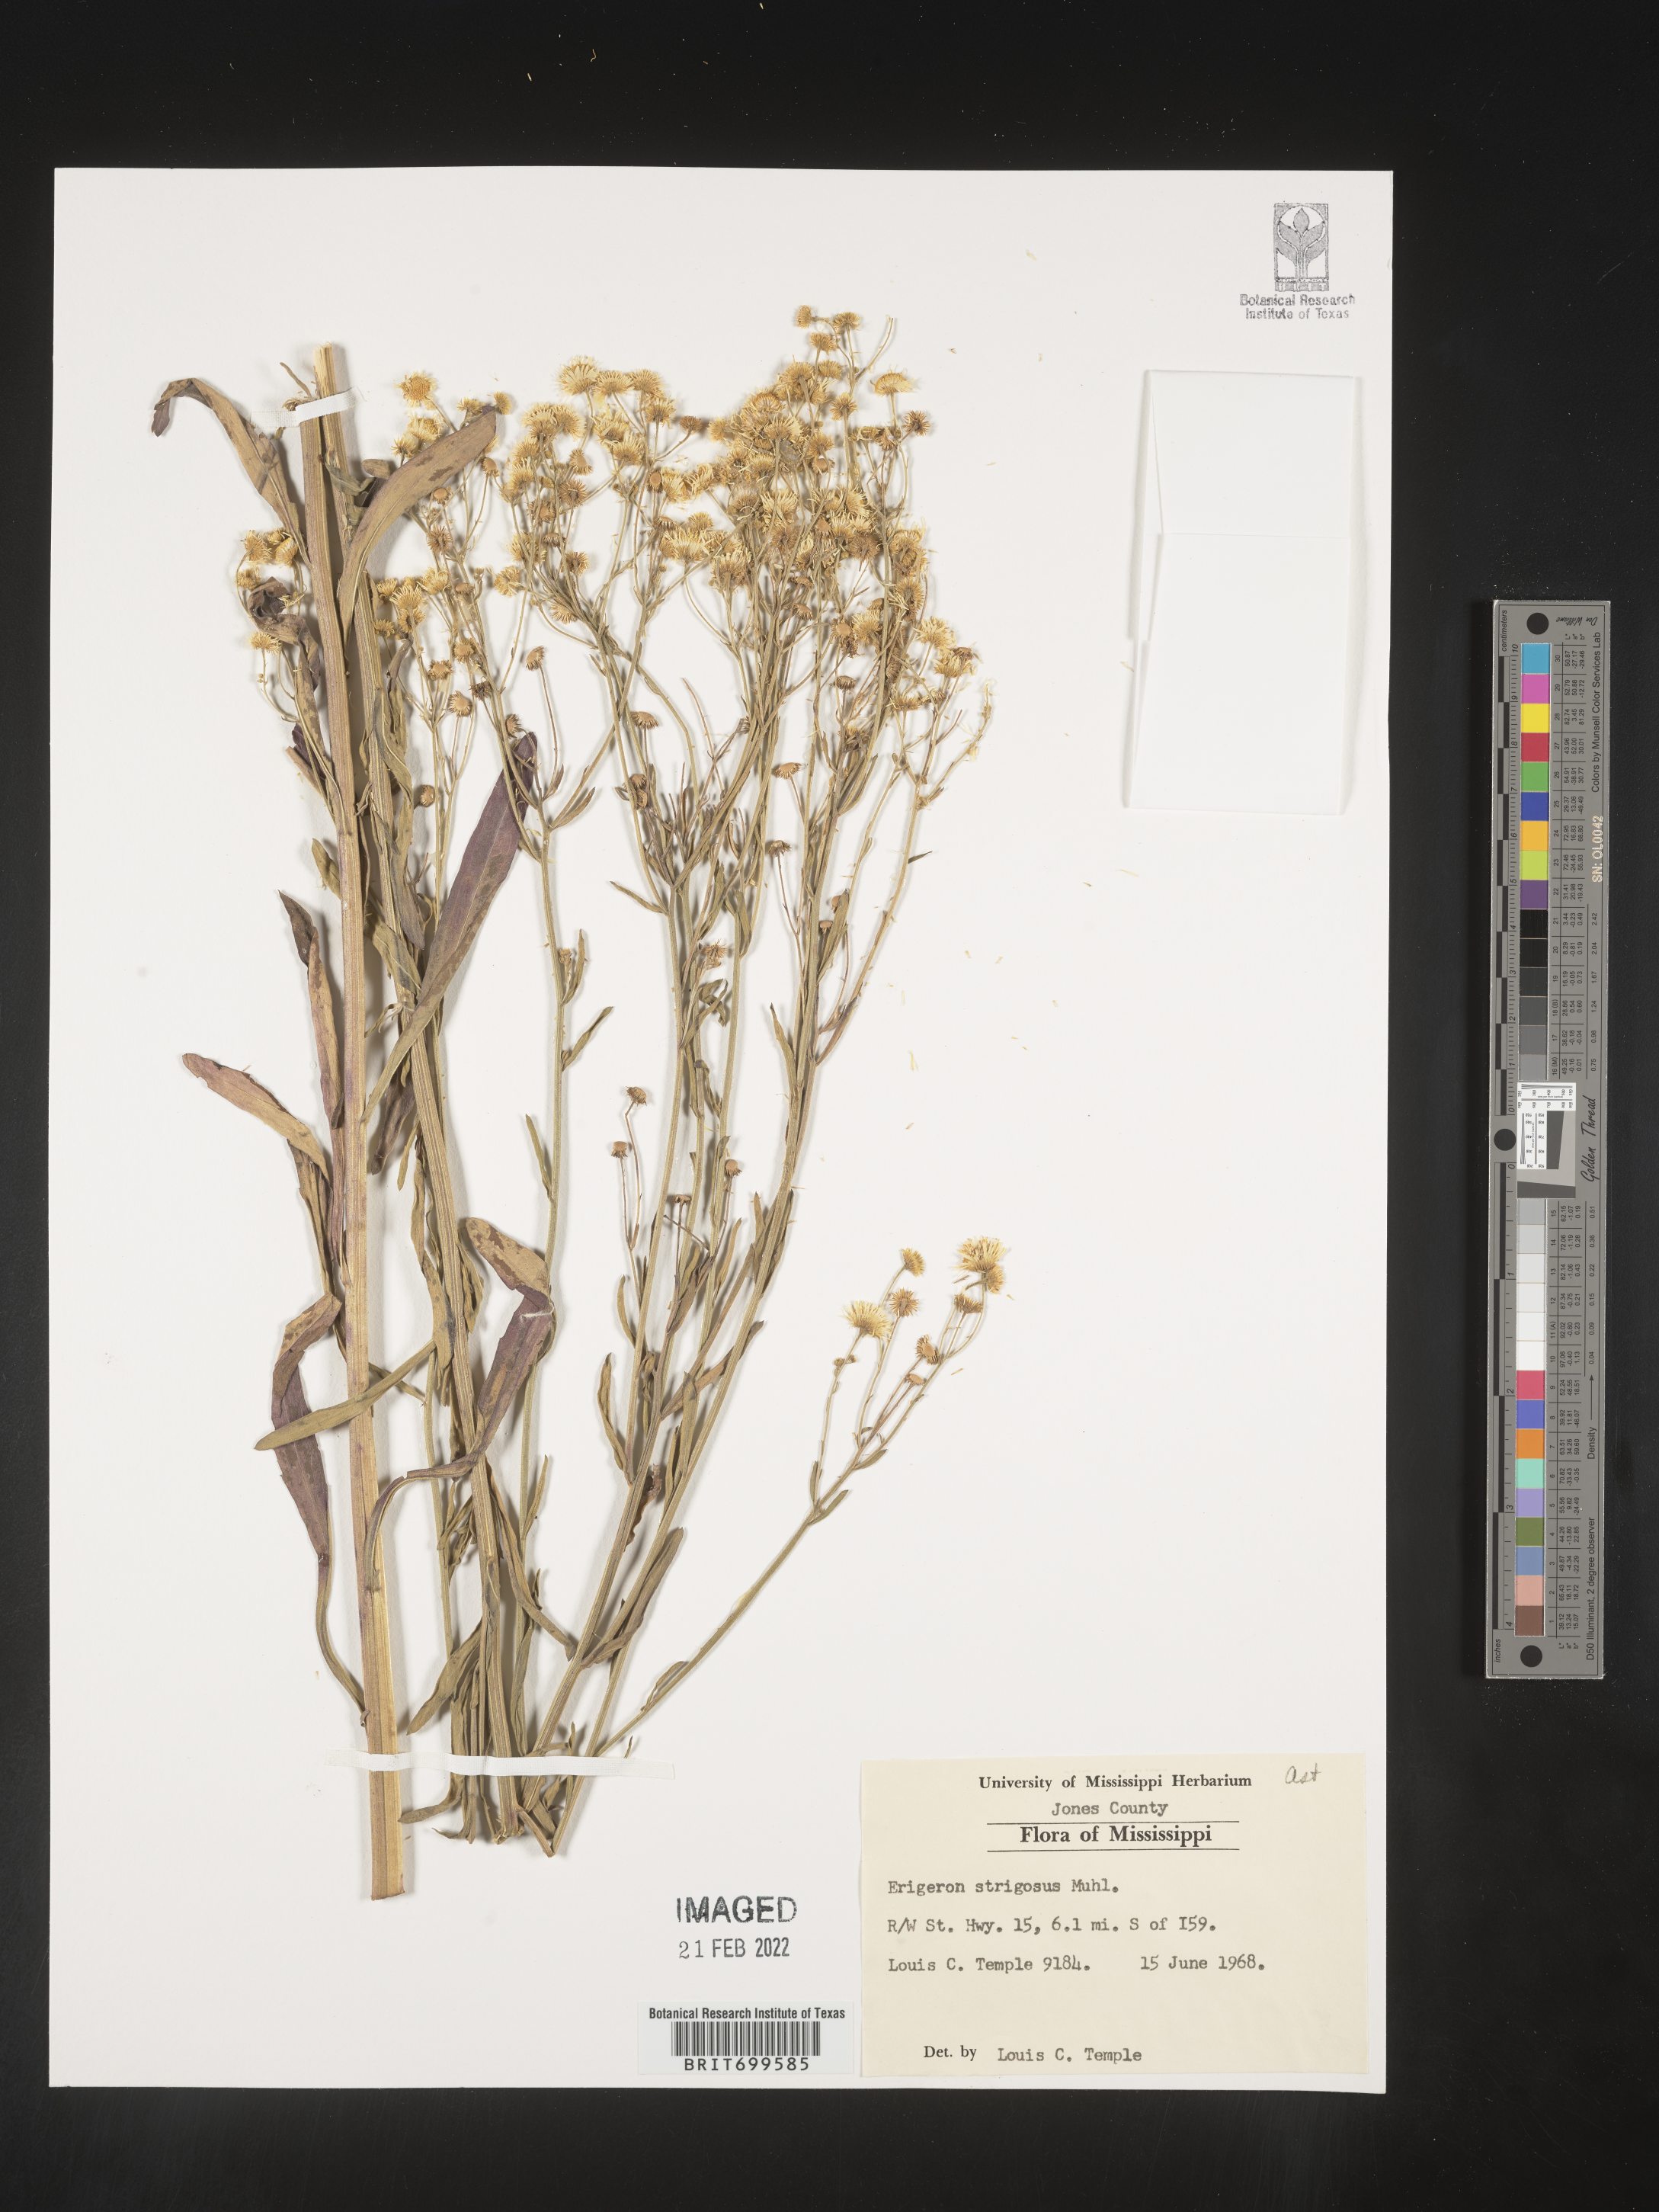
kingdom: Plantae
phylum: Tracheophyta
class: Magnoliopsida
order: Asterales
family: Asteraceae
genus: Erigeron
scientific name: Erigeron strigosus
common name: Common eastern fleabane
